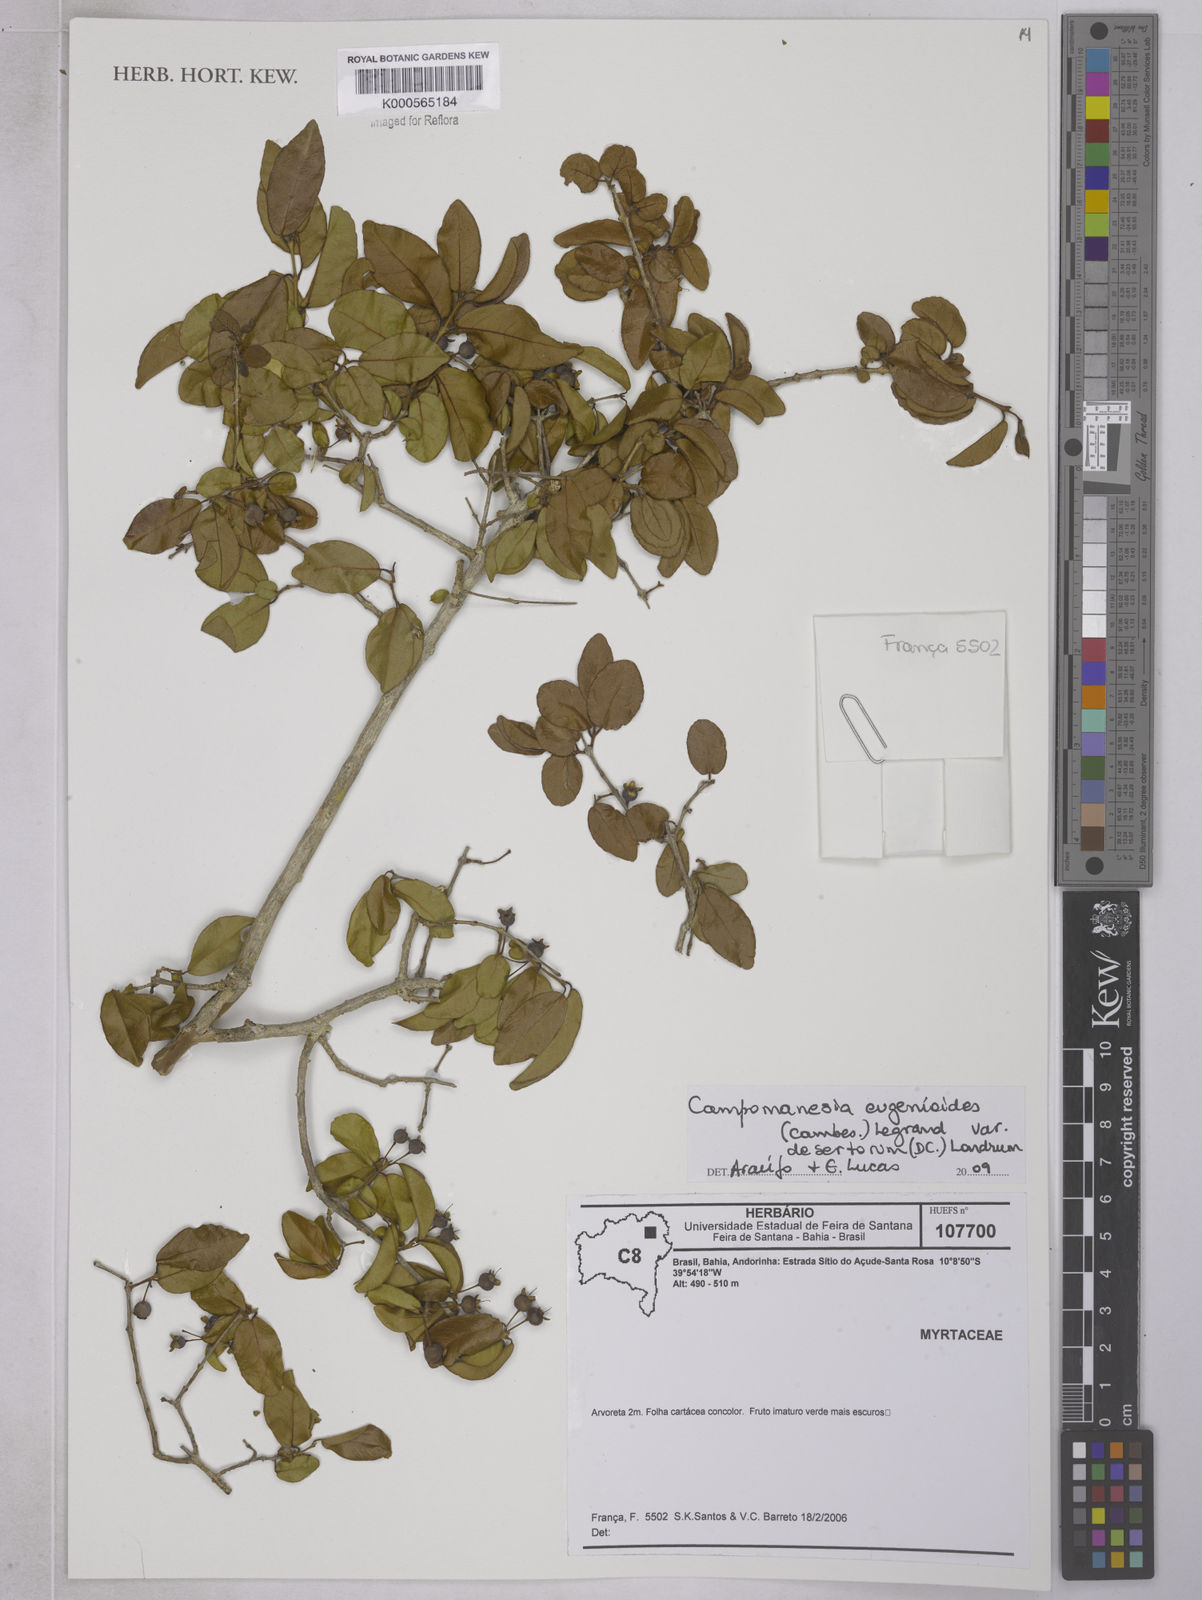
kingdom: Plantae
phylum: Tracheophyta
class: Magnoliopsida
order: Myrtales
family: Myrtaceae
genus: Campomanesia
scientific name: Campomanesia eugenioides
